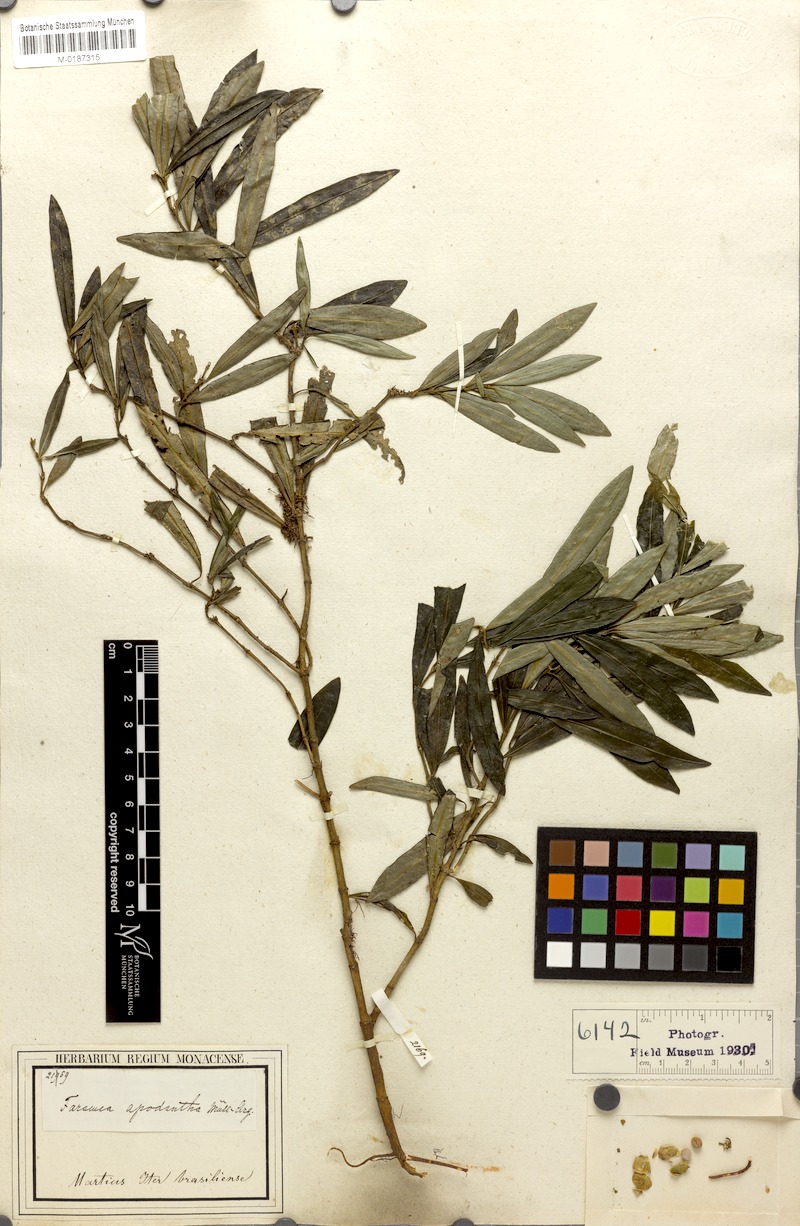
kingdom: Plantae
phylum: Tracheophyta
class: Magnoliopsida
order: Gentianales
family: Rubiaceae
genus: Faramea
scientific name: Faramea apodantha
